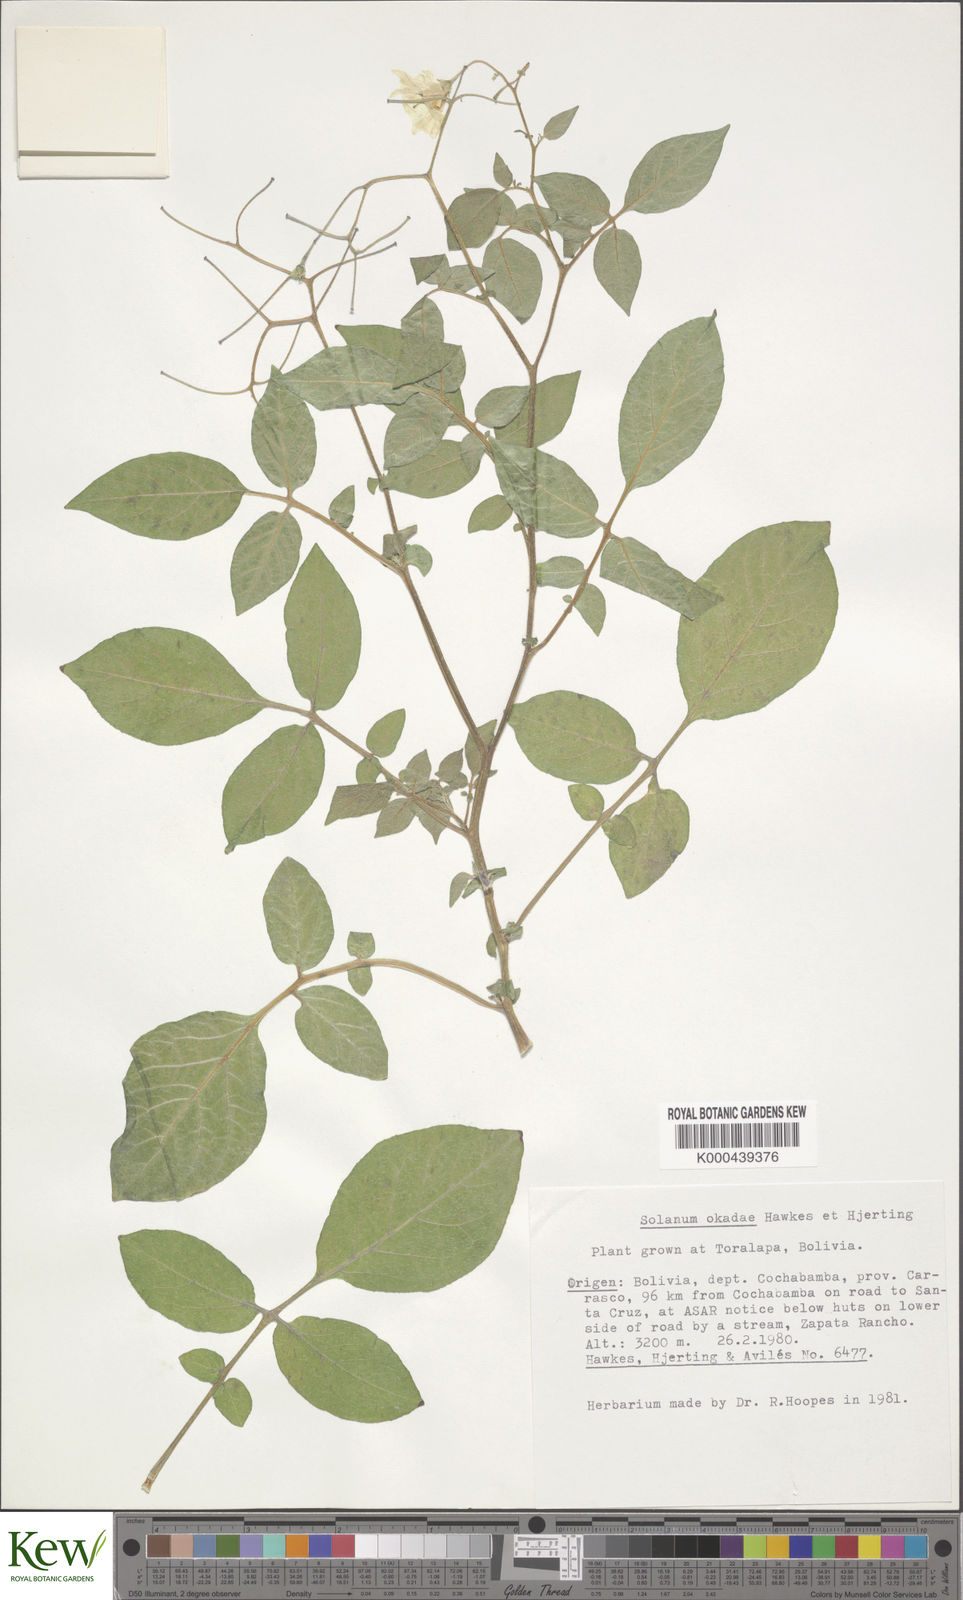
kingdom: Plantae
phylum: Tracheophyta
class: Magnoliopsida
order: Solanales
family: Solanaceae
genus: Solanum
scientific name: Solanum okadae
